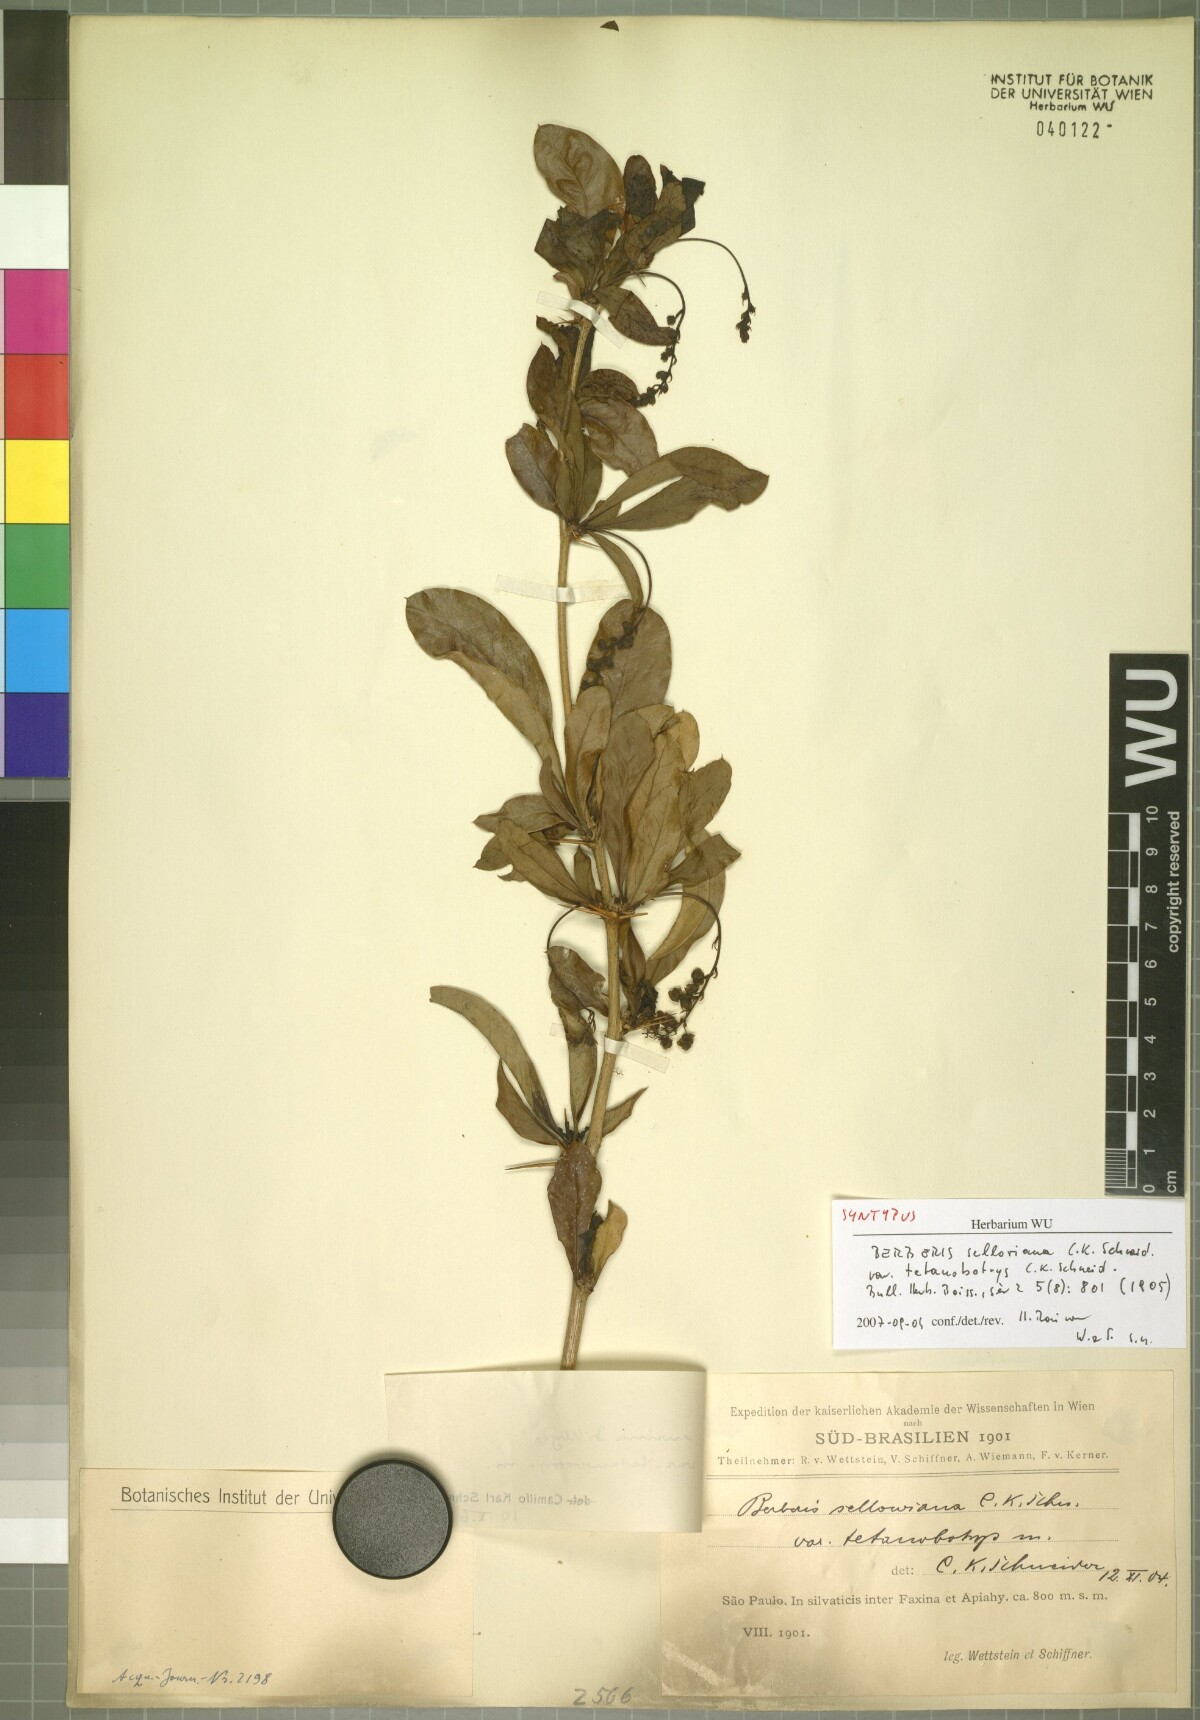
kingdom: Plantae
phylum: Tracheophyta
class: Magnoliopsida
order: Ranunculales
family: Berberidaceae
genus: Berberis
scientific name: Berberis laurina
